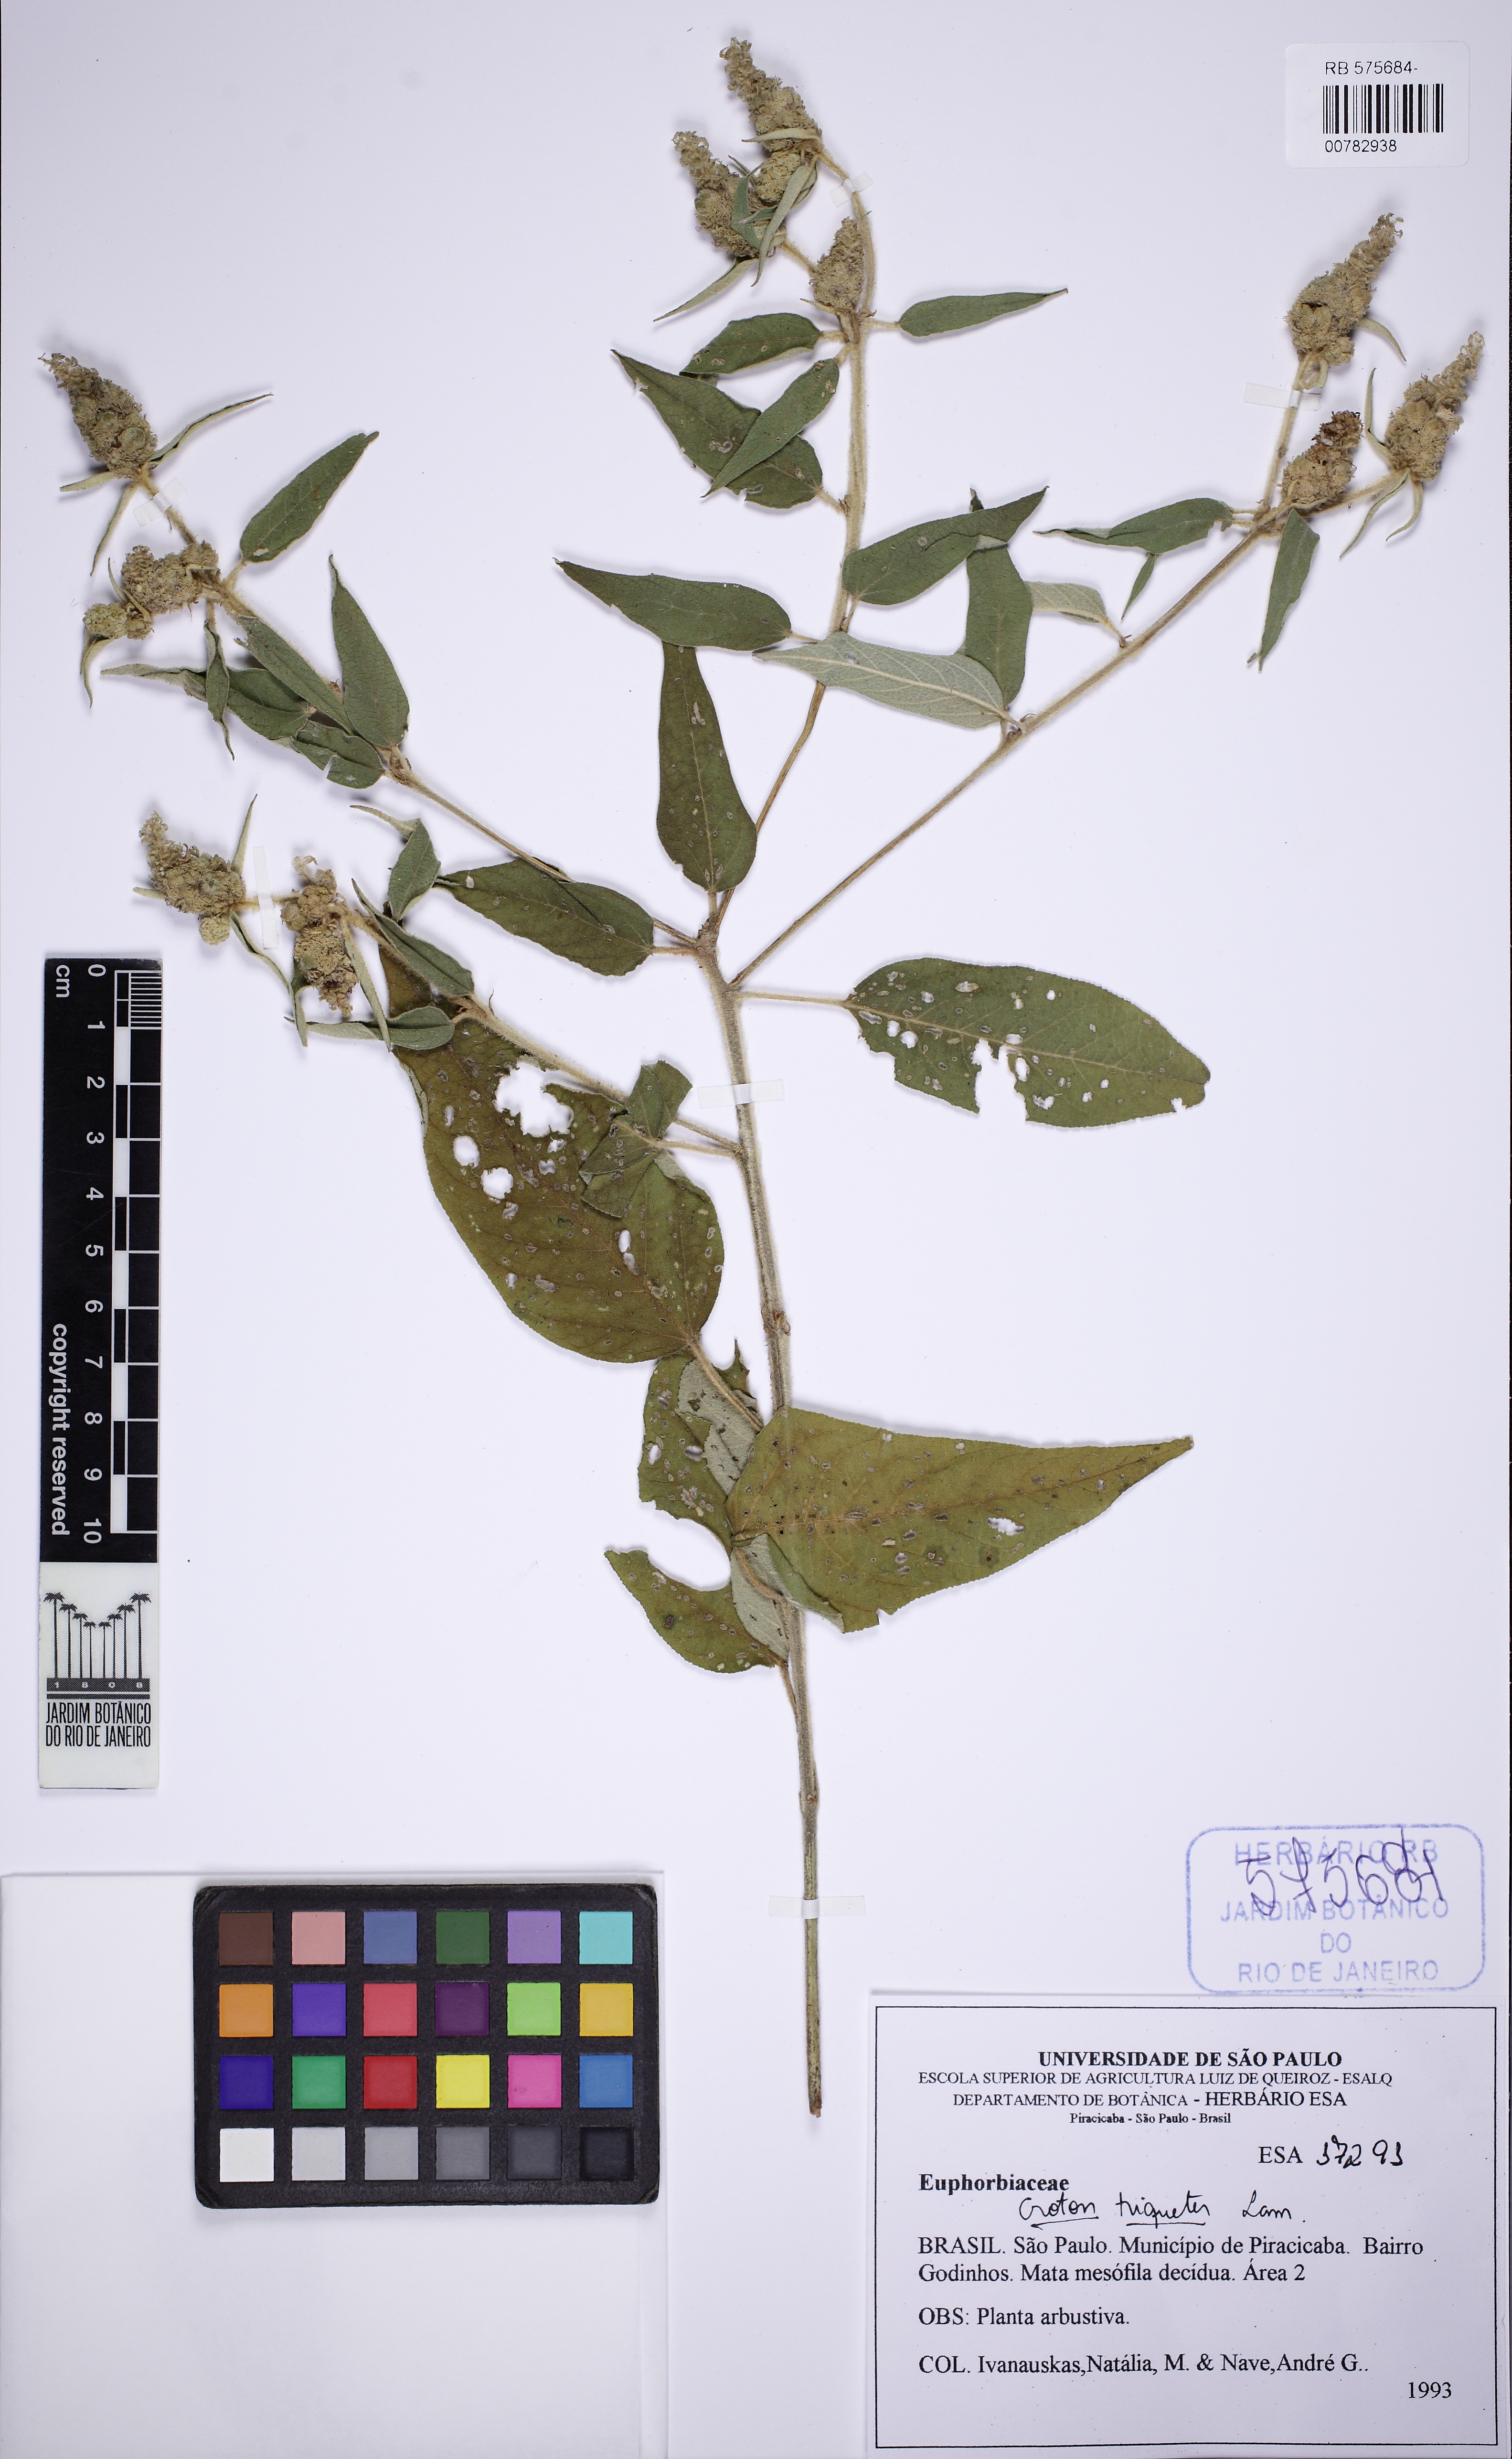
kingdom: Plantae
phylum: Tracheophyta
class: Magnoliopsida
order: Malpighiales
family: Euphorbiaceae
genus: Croton
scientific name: Croton triqueter
